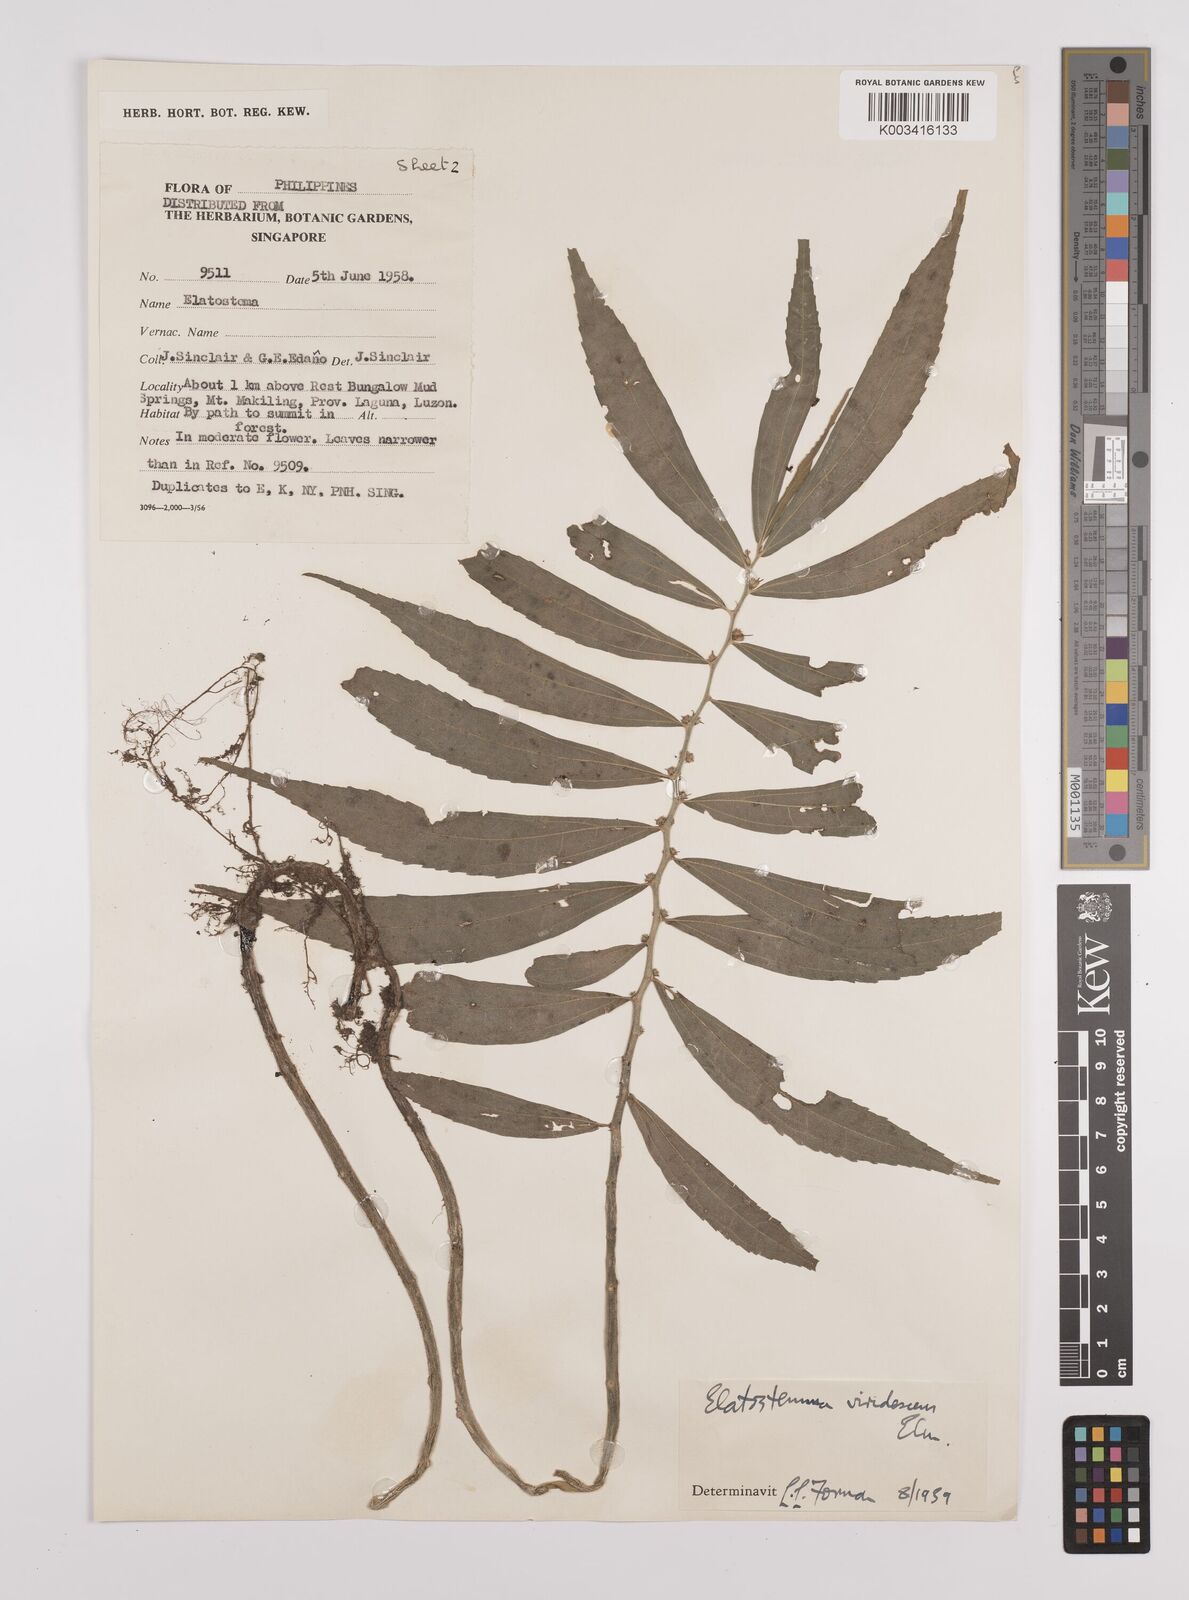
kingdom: Plantae
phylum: Tracheophyta
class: Magnoliopsida
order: Rosales
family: Urticaceae
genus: Elatostema
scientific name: Elatostema viridescens
